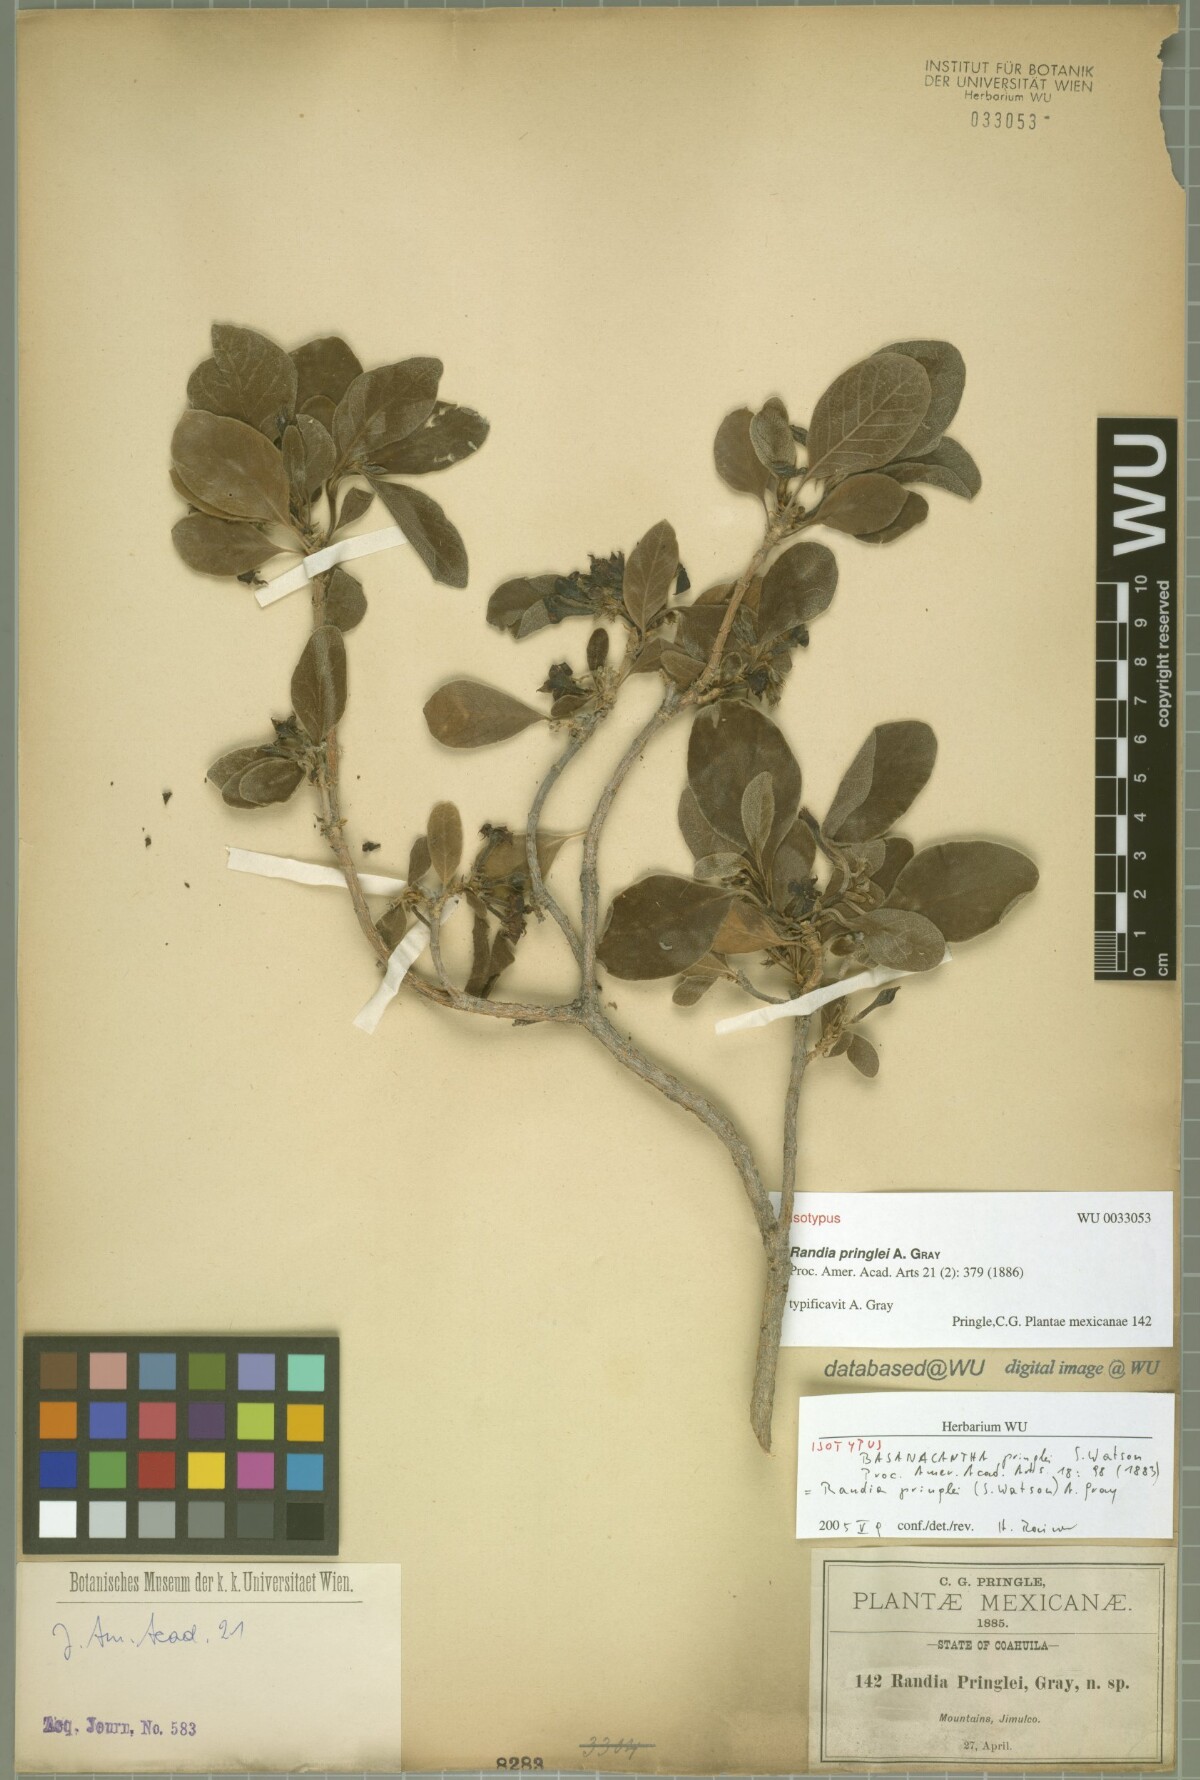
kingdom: Plantae
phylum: Tracheophyta
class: Magnoliopsida
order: Gentianales
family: Rubiaceae
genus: Randia
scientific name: Randia pringlei
